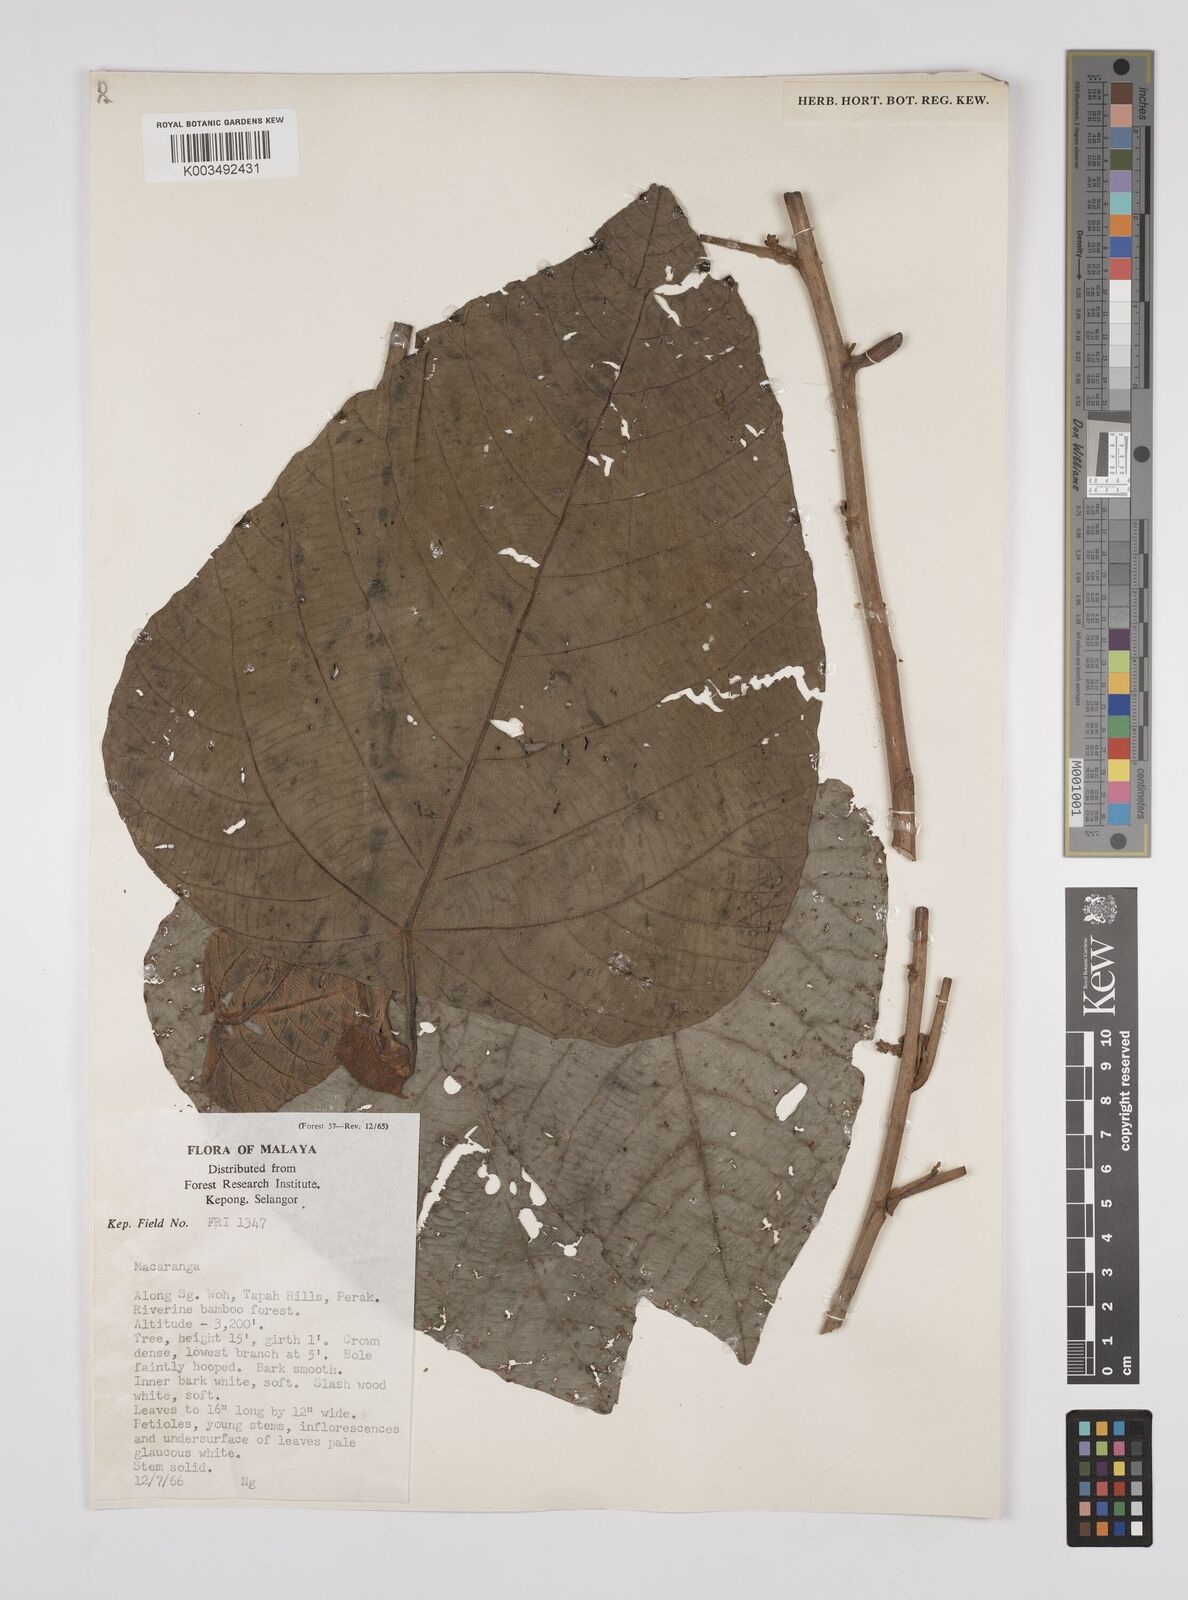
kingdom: Plantae
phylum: Tracheophyta
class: Magnoliopsida
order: Malpighiales
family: Euphorbiaceae
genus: Macaranga
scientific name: Macaranga denticulata
